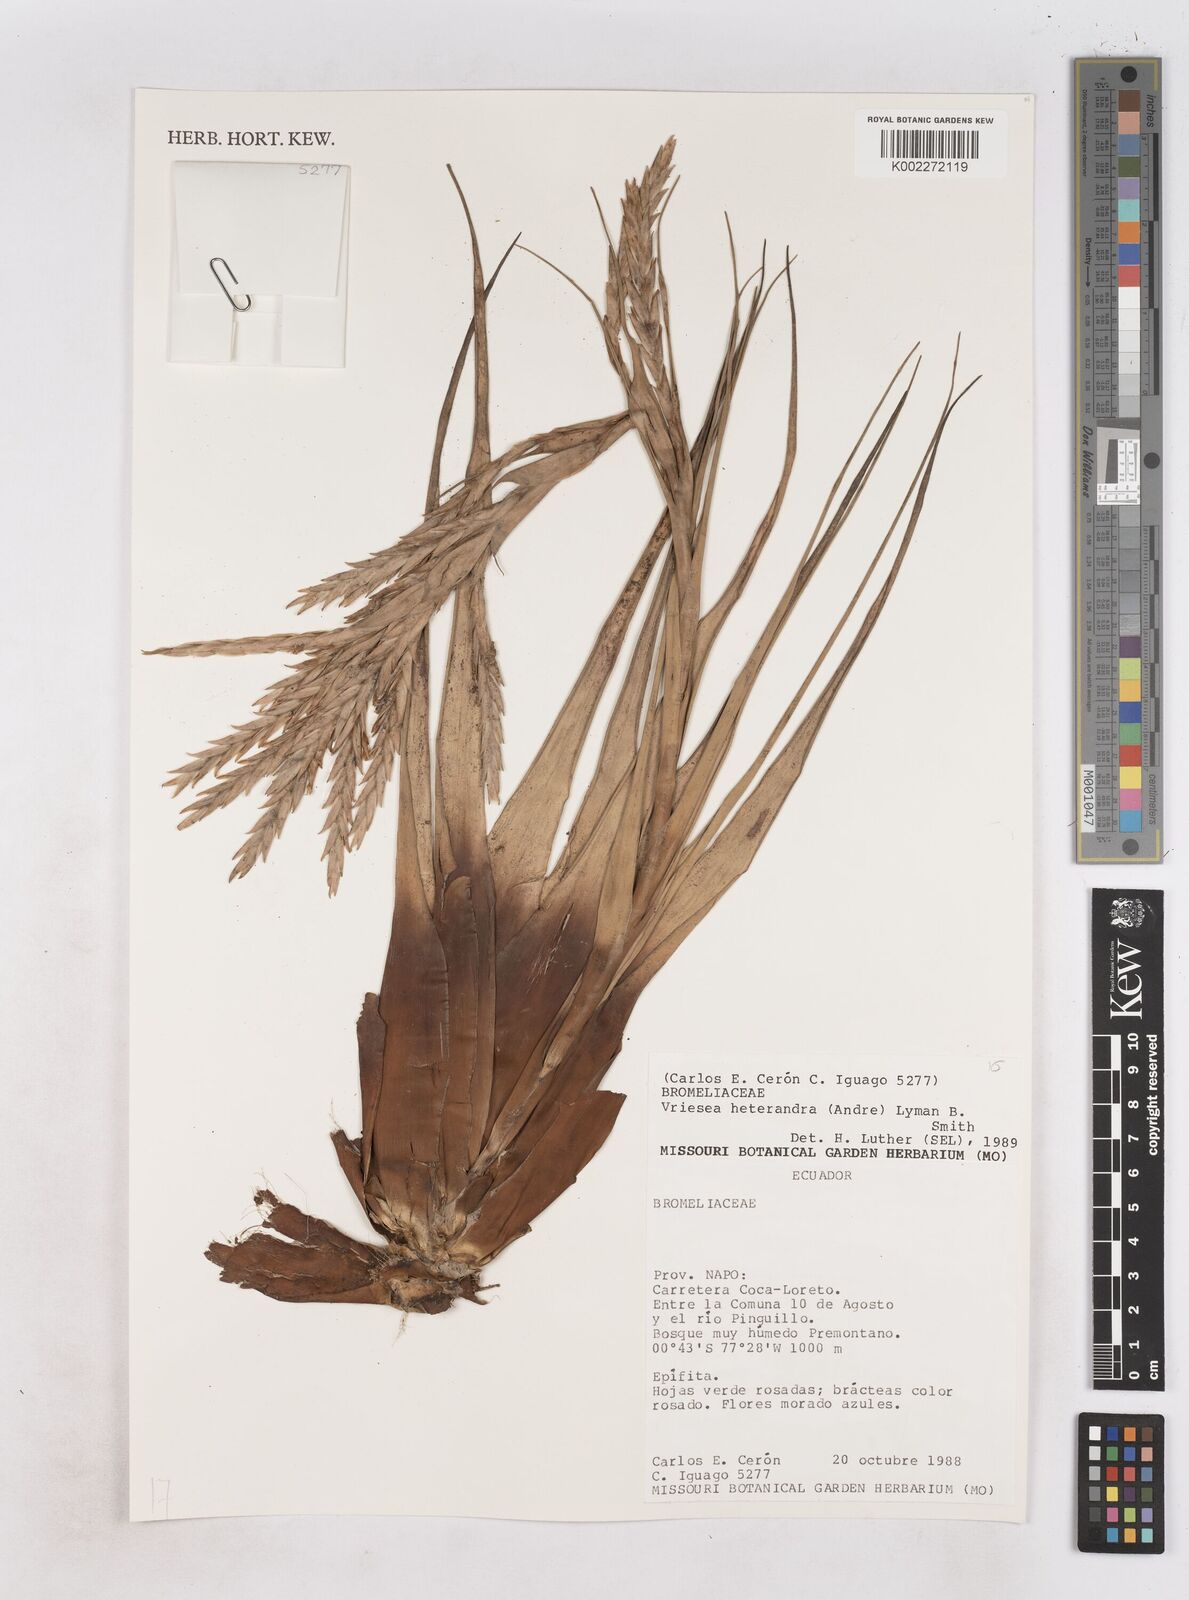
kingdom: Plantae
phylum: Tracheophyta
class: Liliopsida
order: Poales
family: Bromeliaceae
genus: Tillandsia
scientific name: Tillandsia heterandra
